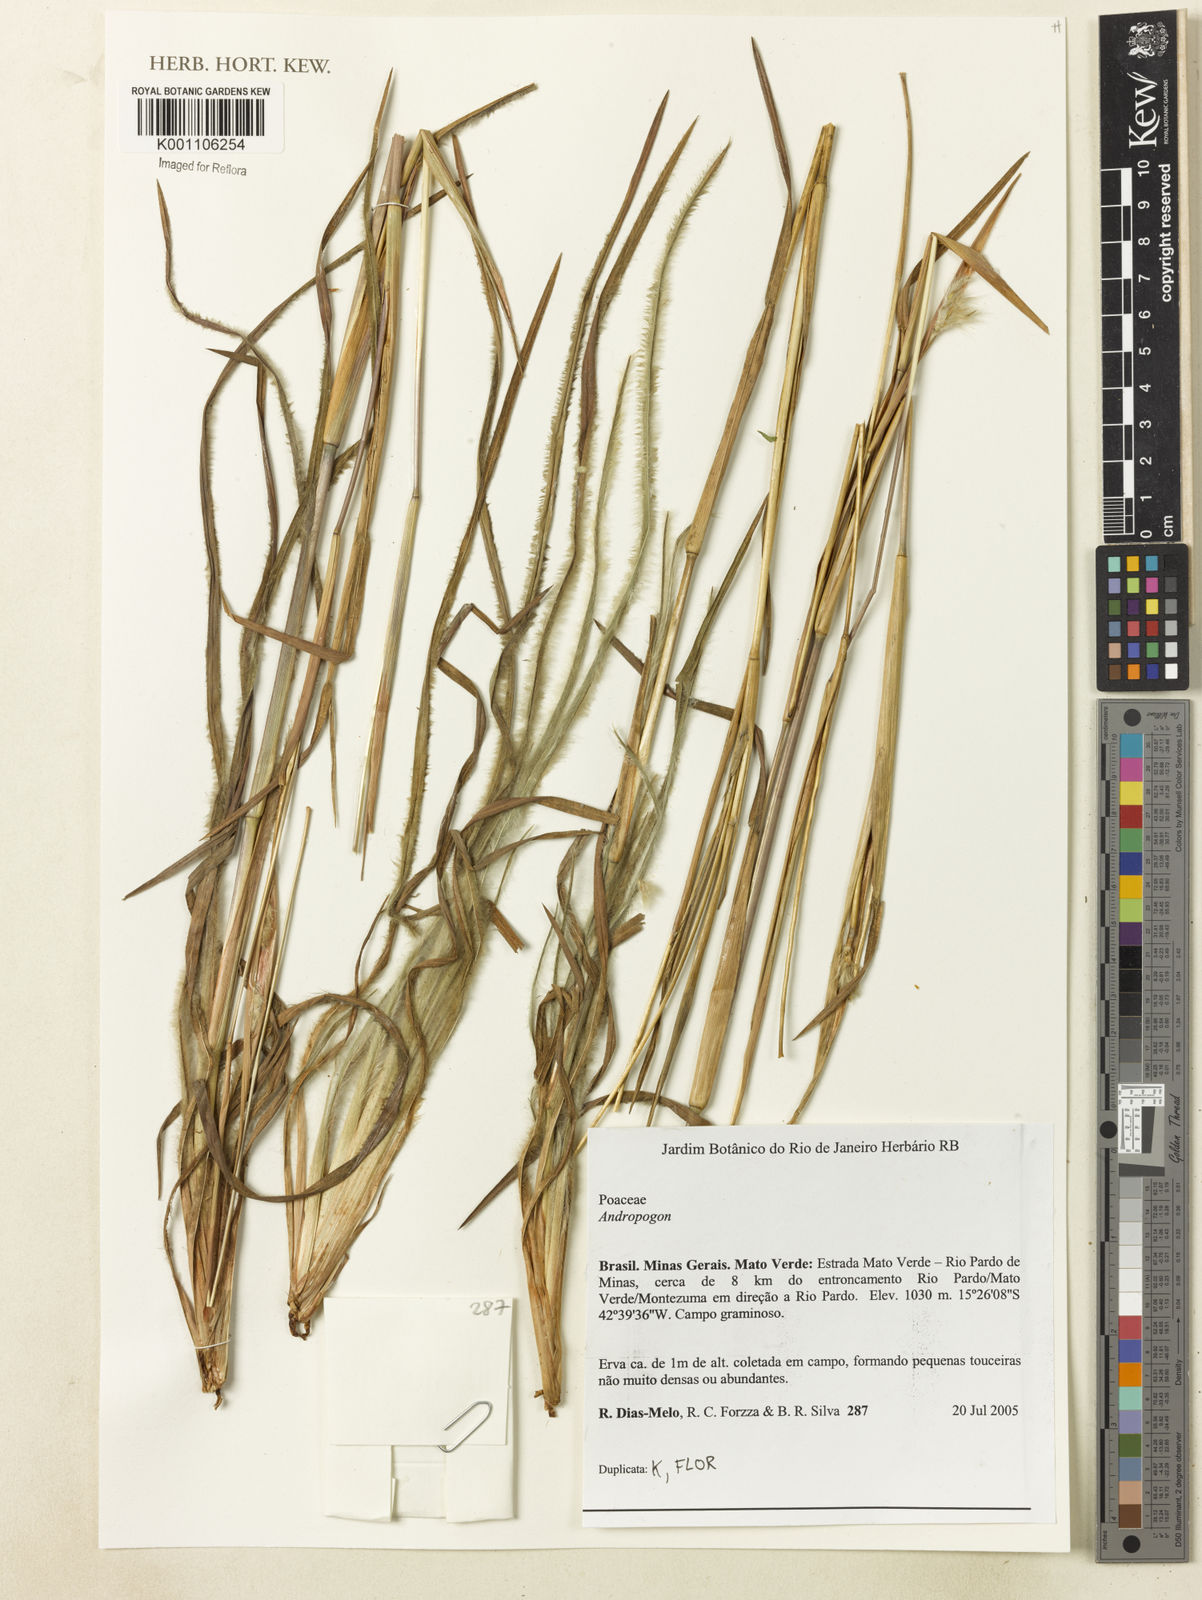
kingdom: Plantae
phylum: Tracheophyta
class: Liliopsida
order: Poales
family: Poaceae
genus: Andropogon
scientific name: Andropogon
